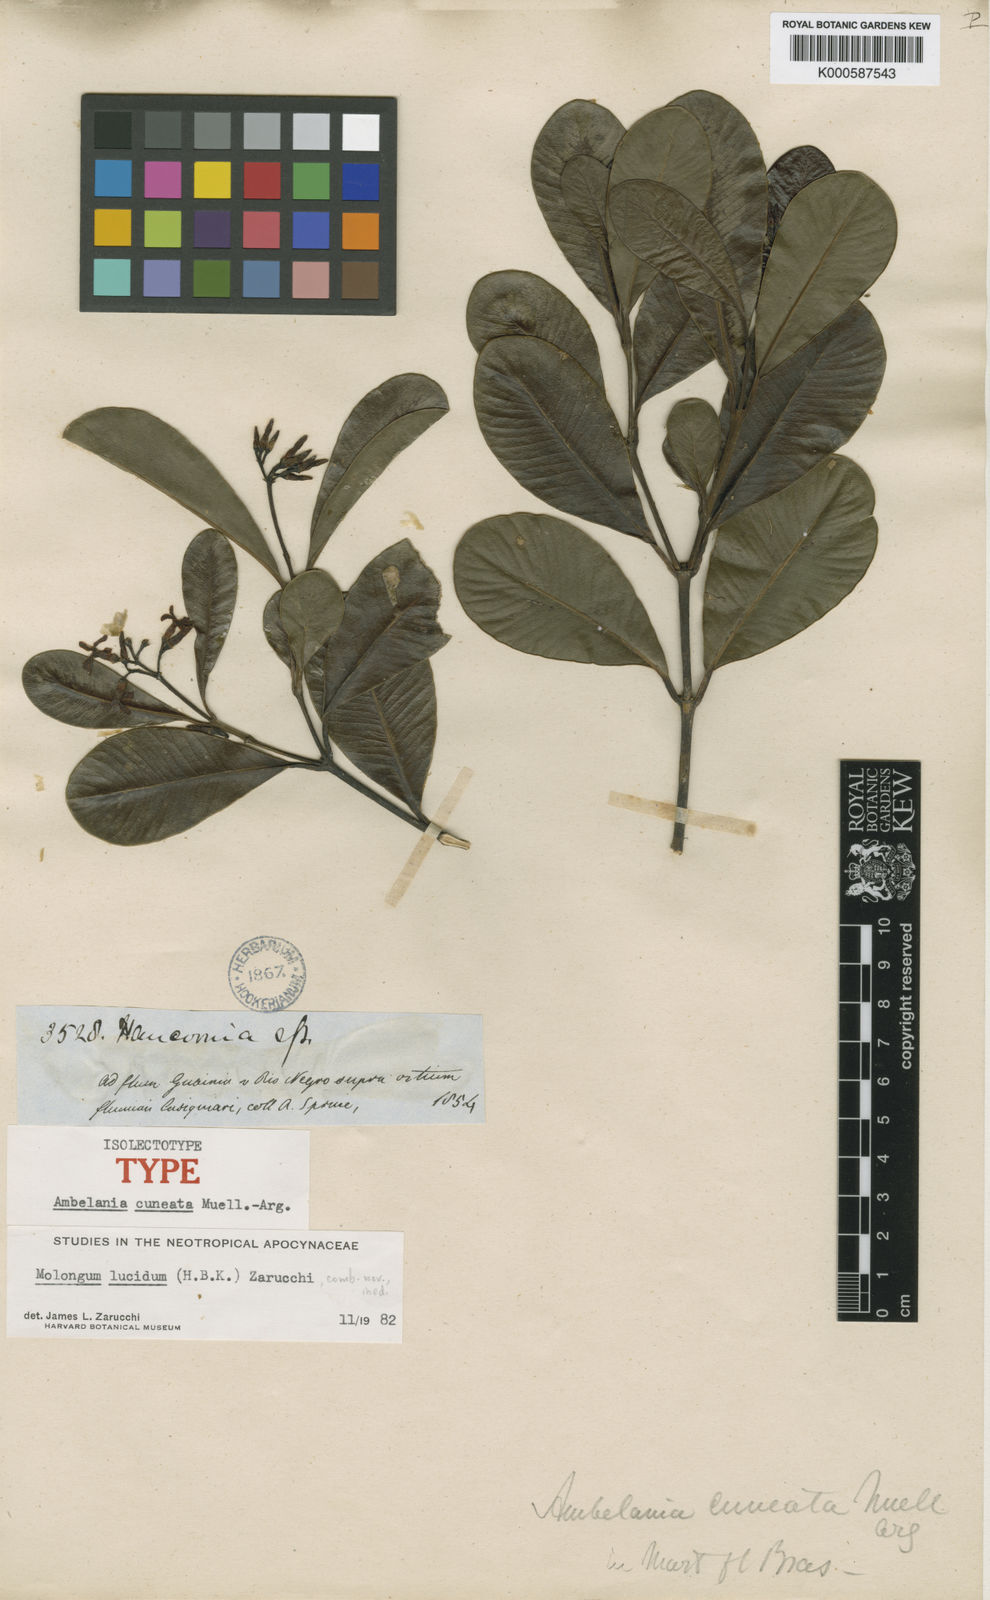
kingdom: Plantae
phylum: Tracheophyta
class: Magnoliopsida
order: Gentianales
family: Apocynaceae
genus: Molongum
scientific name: Molongum lucidum
